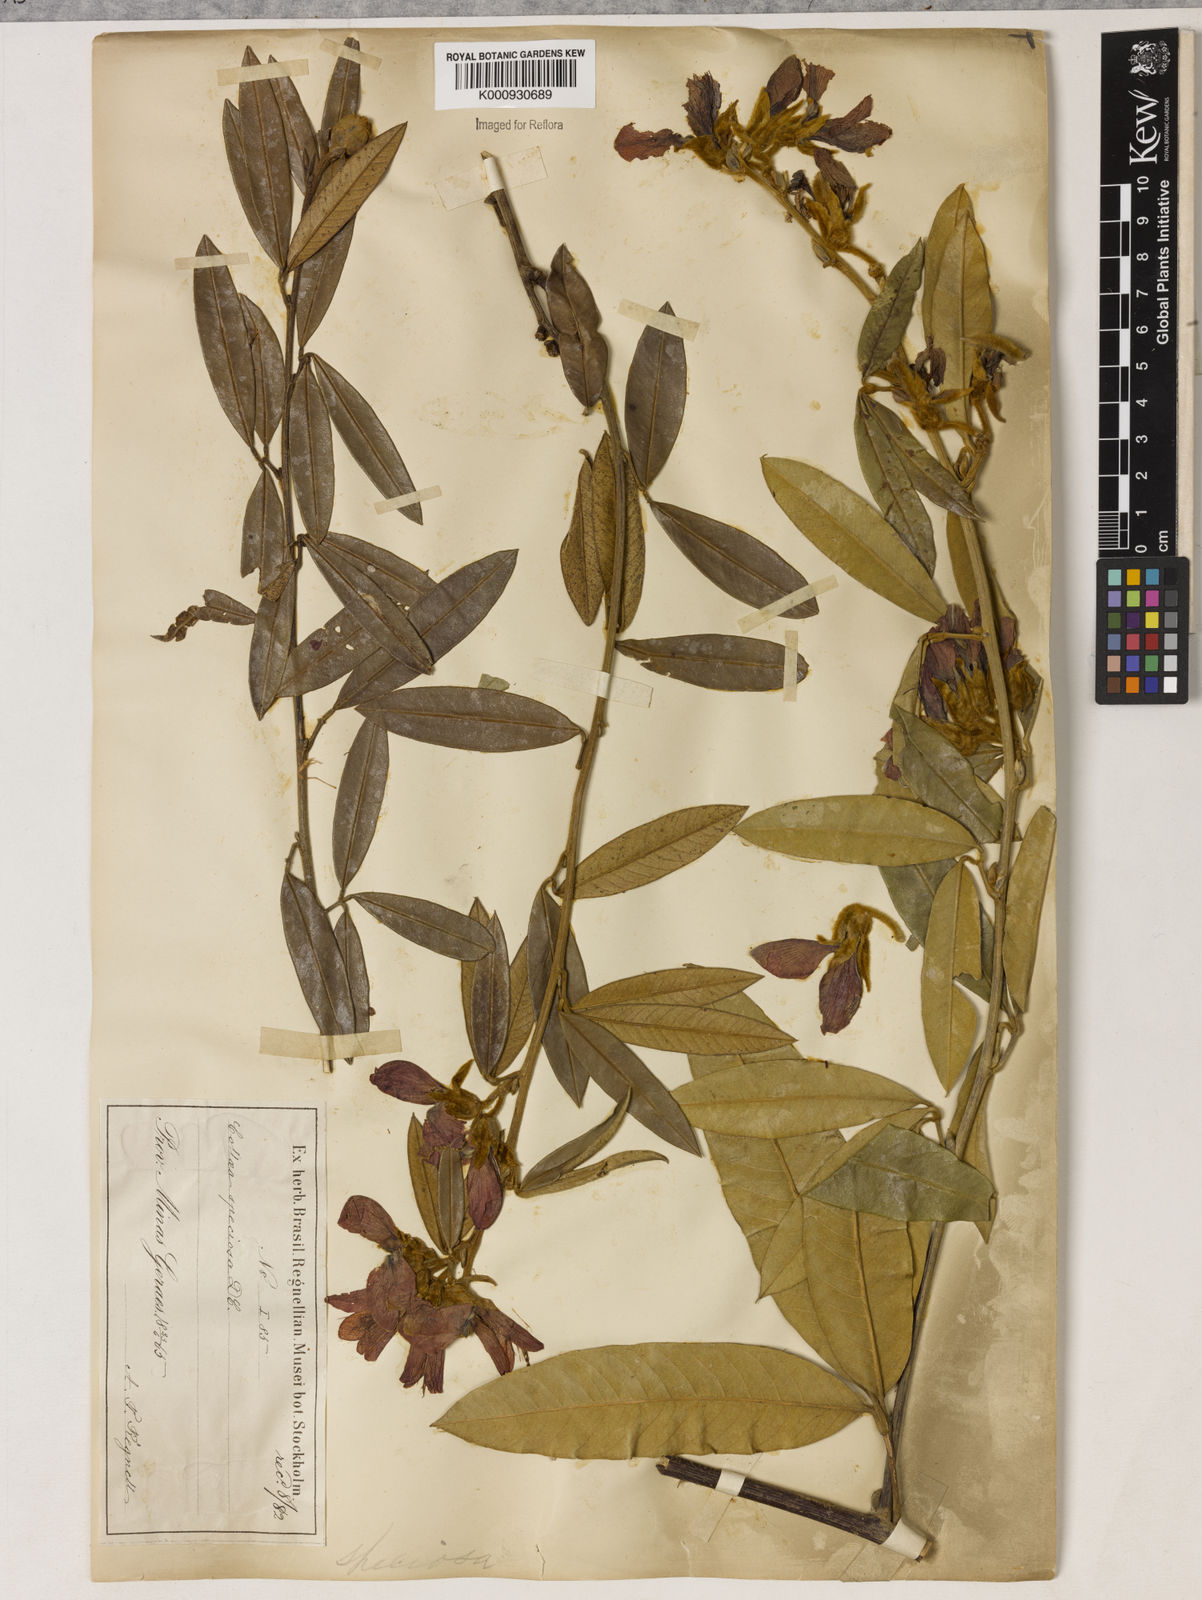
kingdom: Plantae
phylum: Tracheophyta
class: Magnoliopsida
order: Lamiales
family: Lamiaceae
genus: Coleus
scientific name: Coleus barbatus
